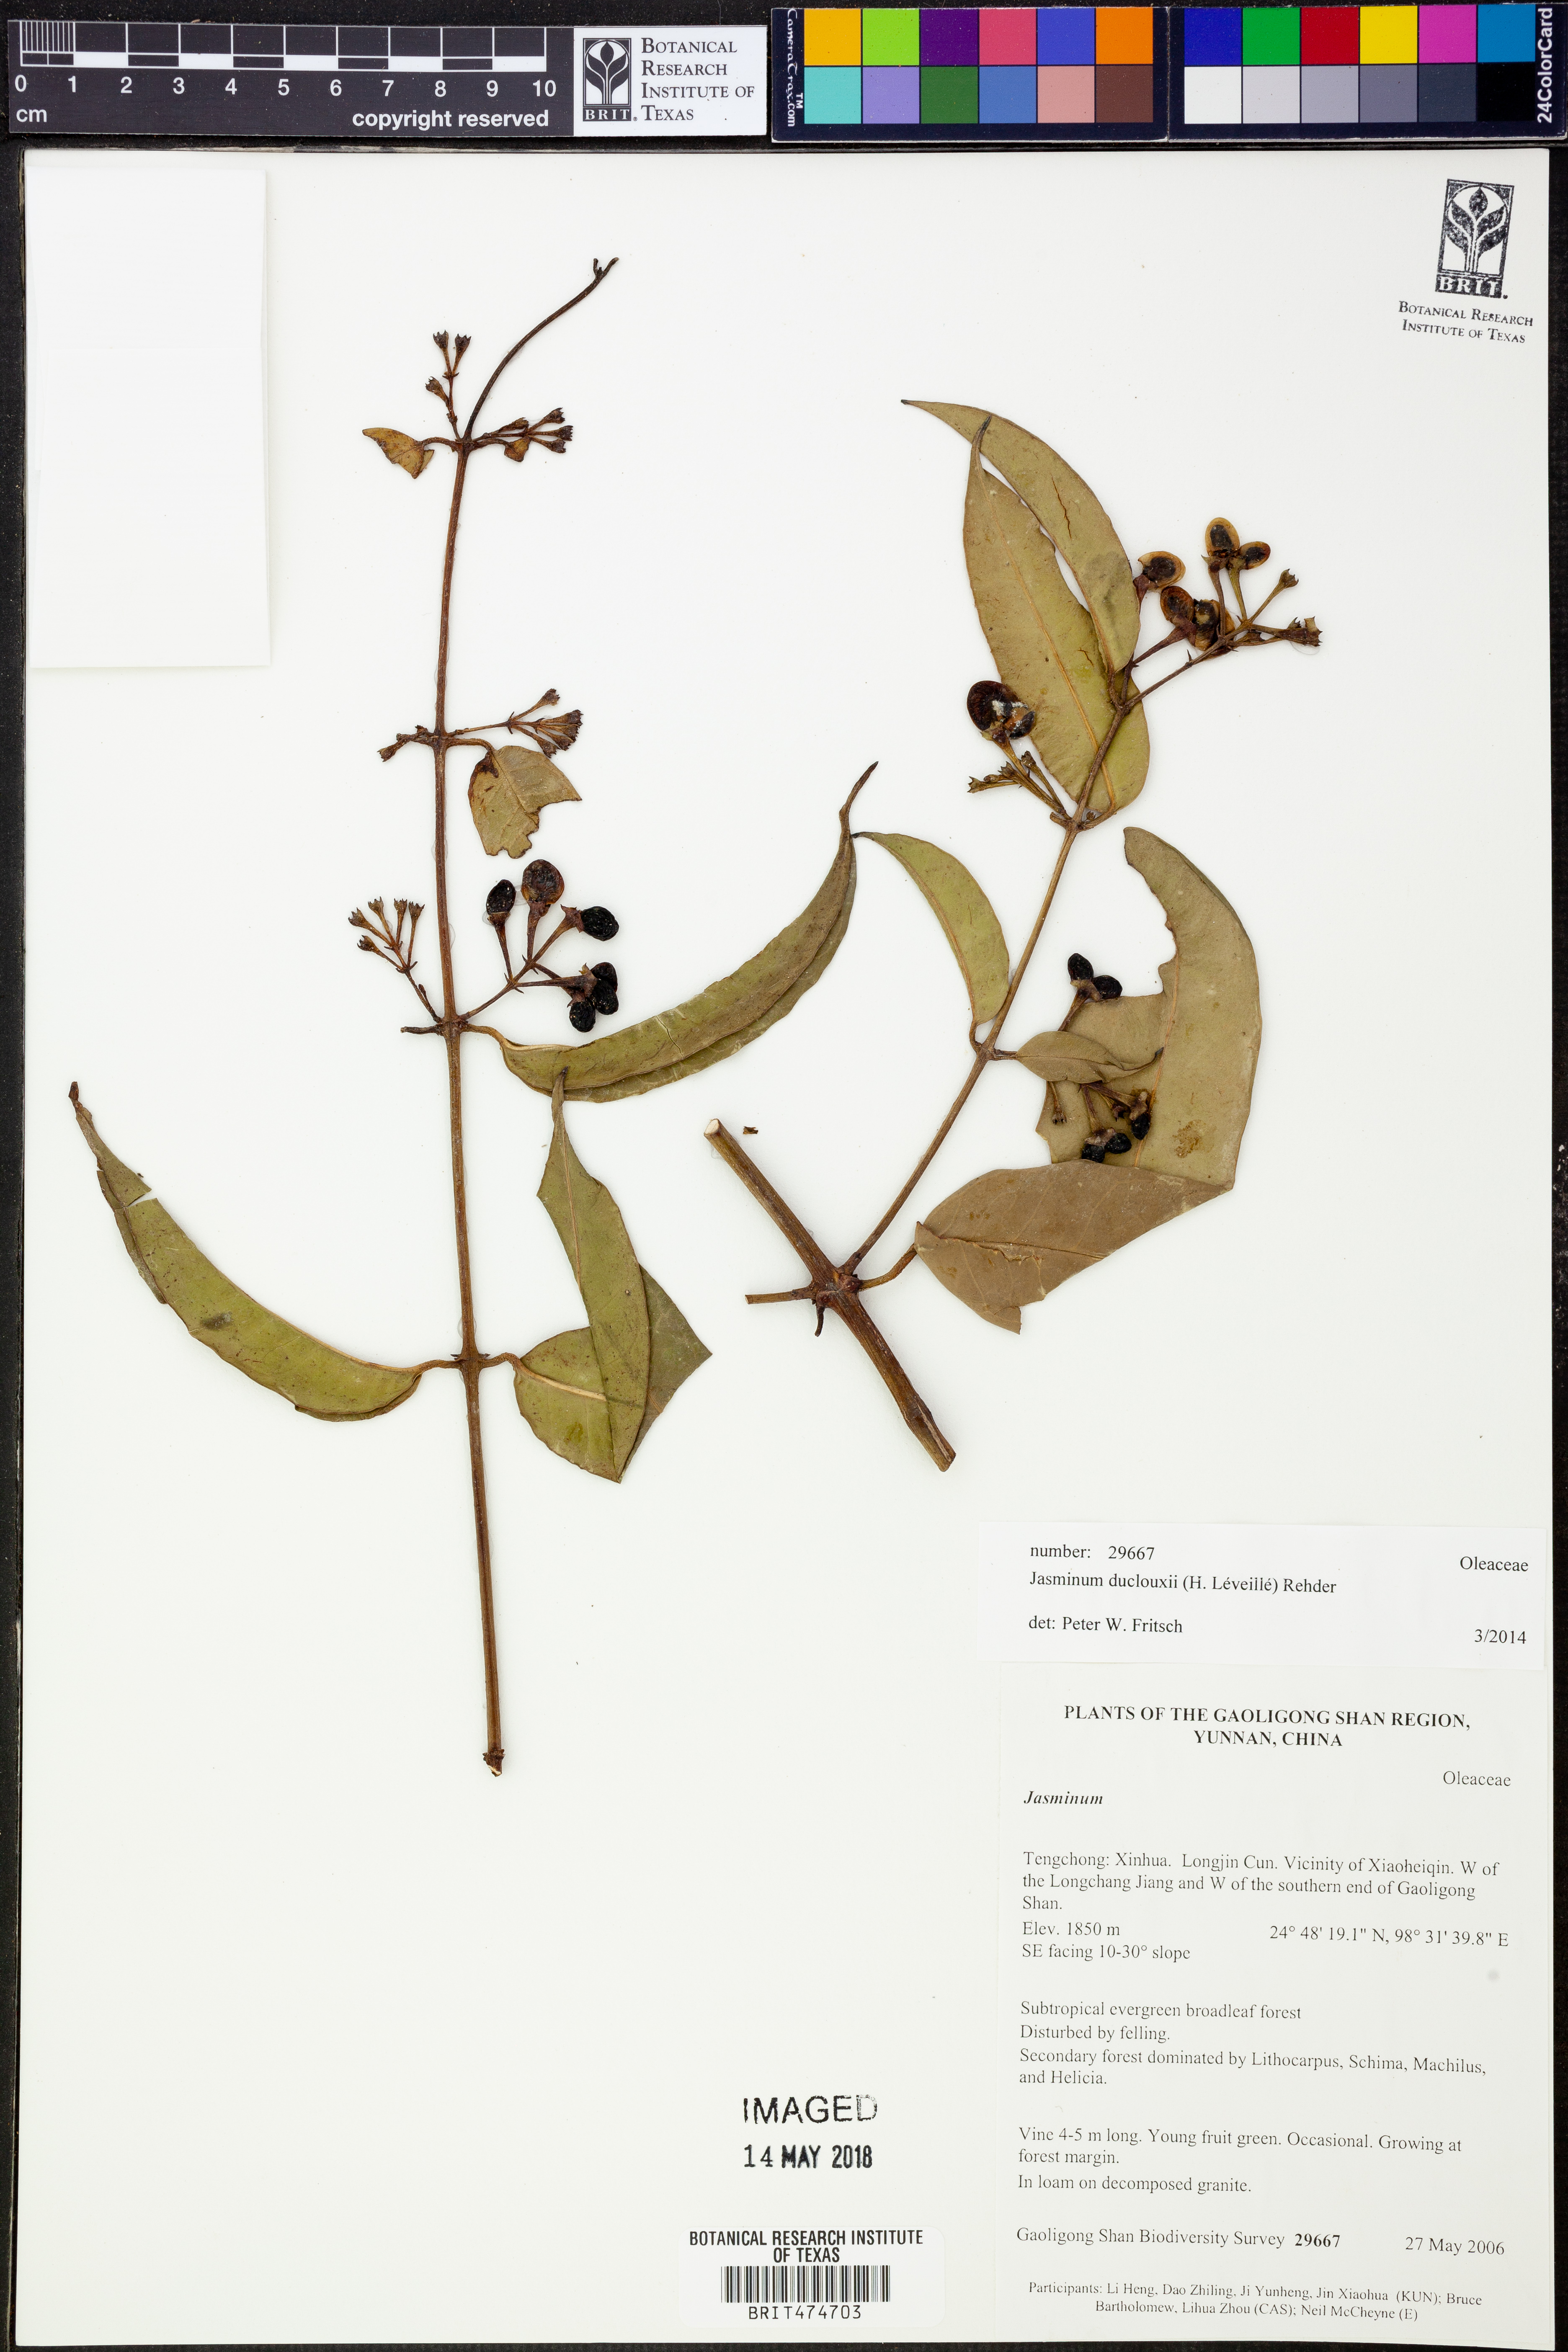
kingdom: Plantae
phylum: Tracheophyta
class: Magnoliopsida
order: Lamiales
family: Oleaceae
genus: Jasminum
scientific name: Jasminum duclouxii
